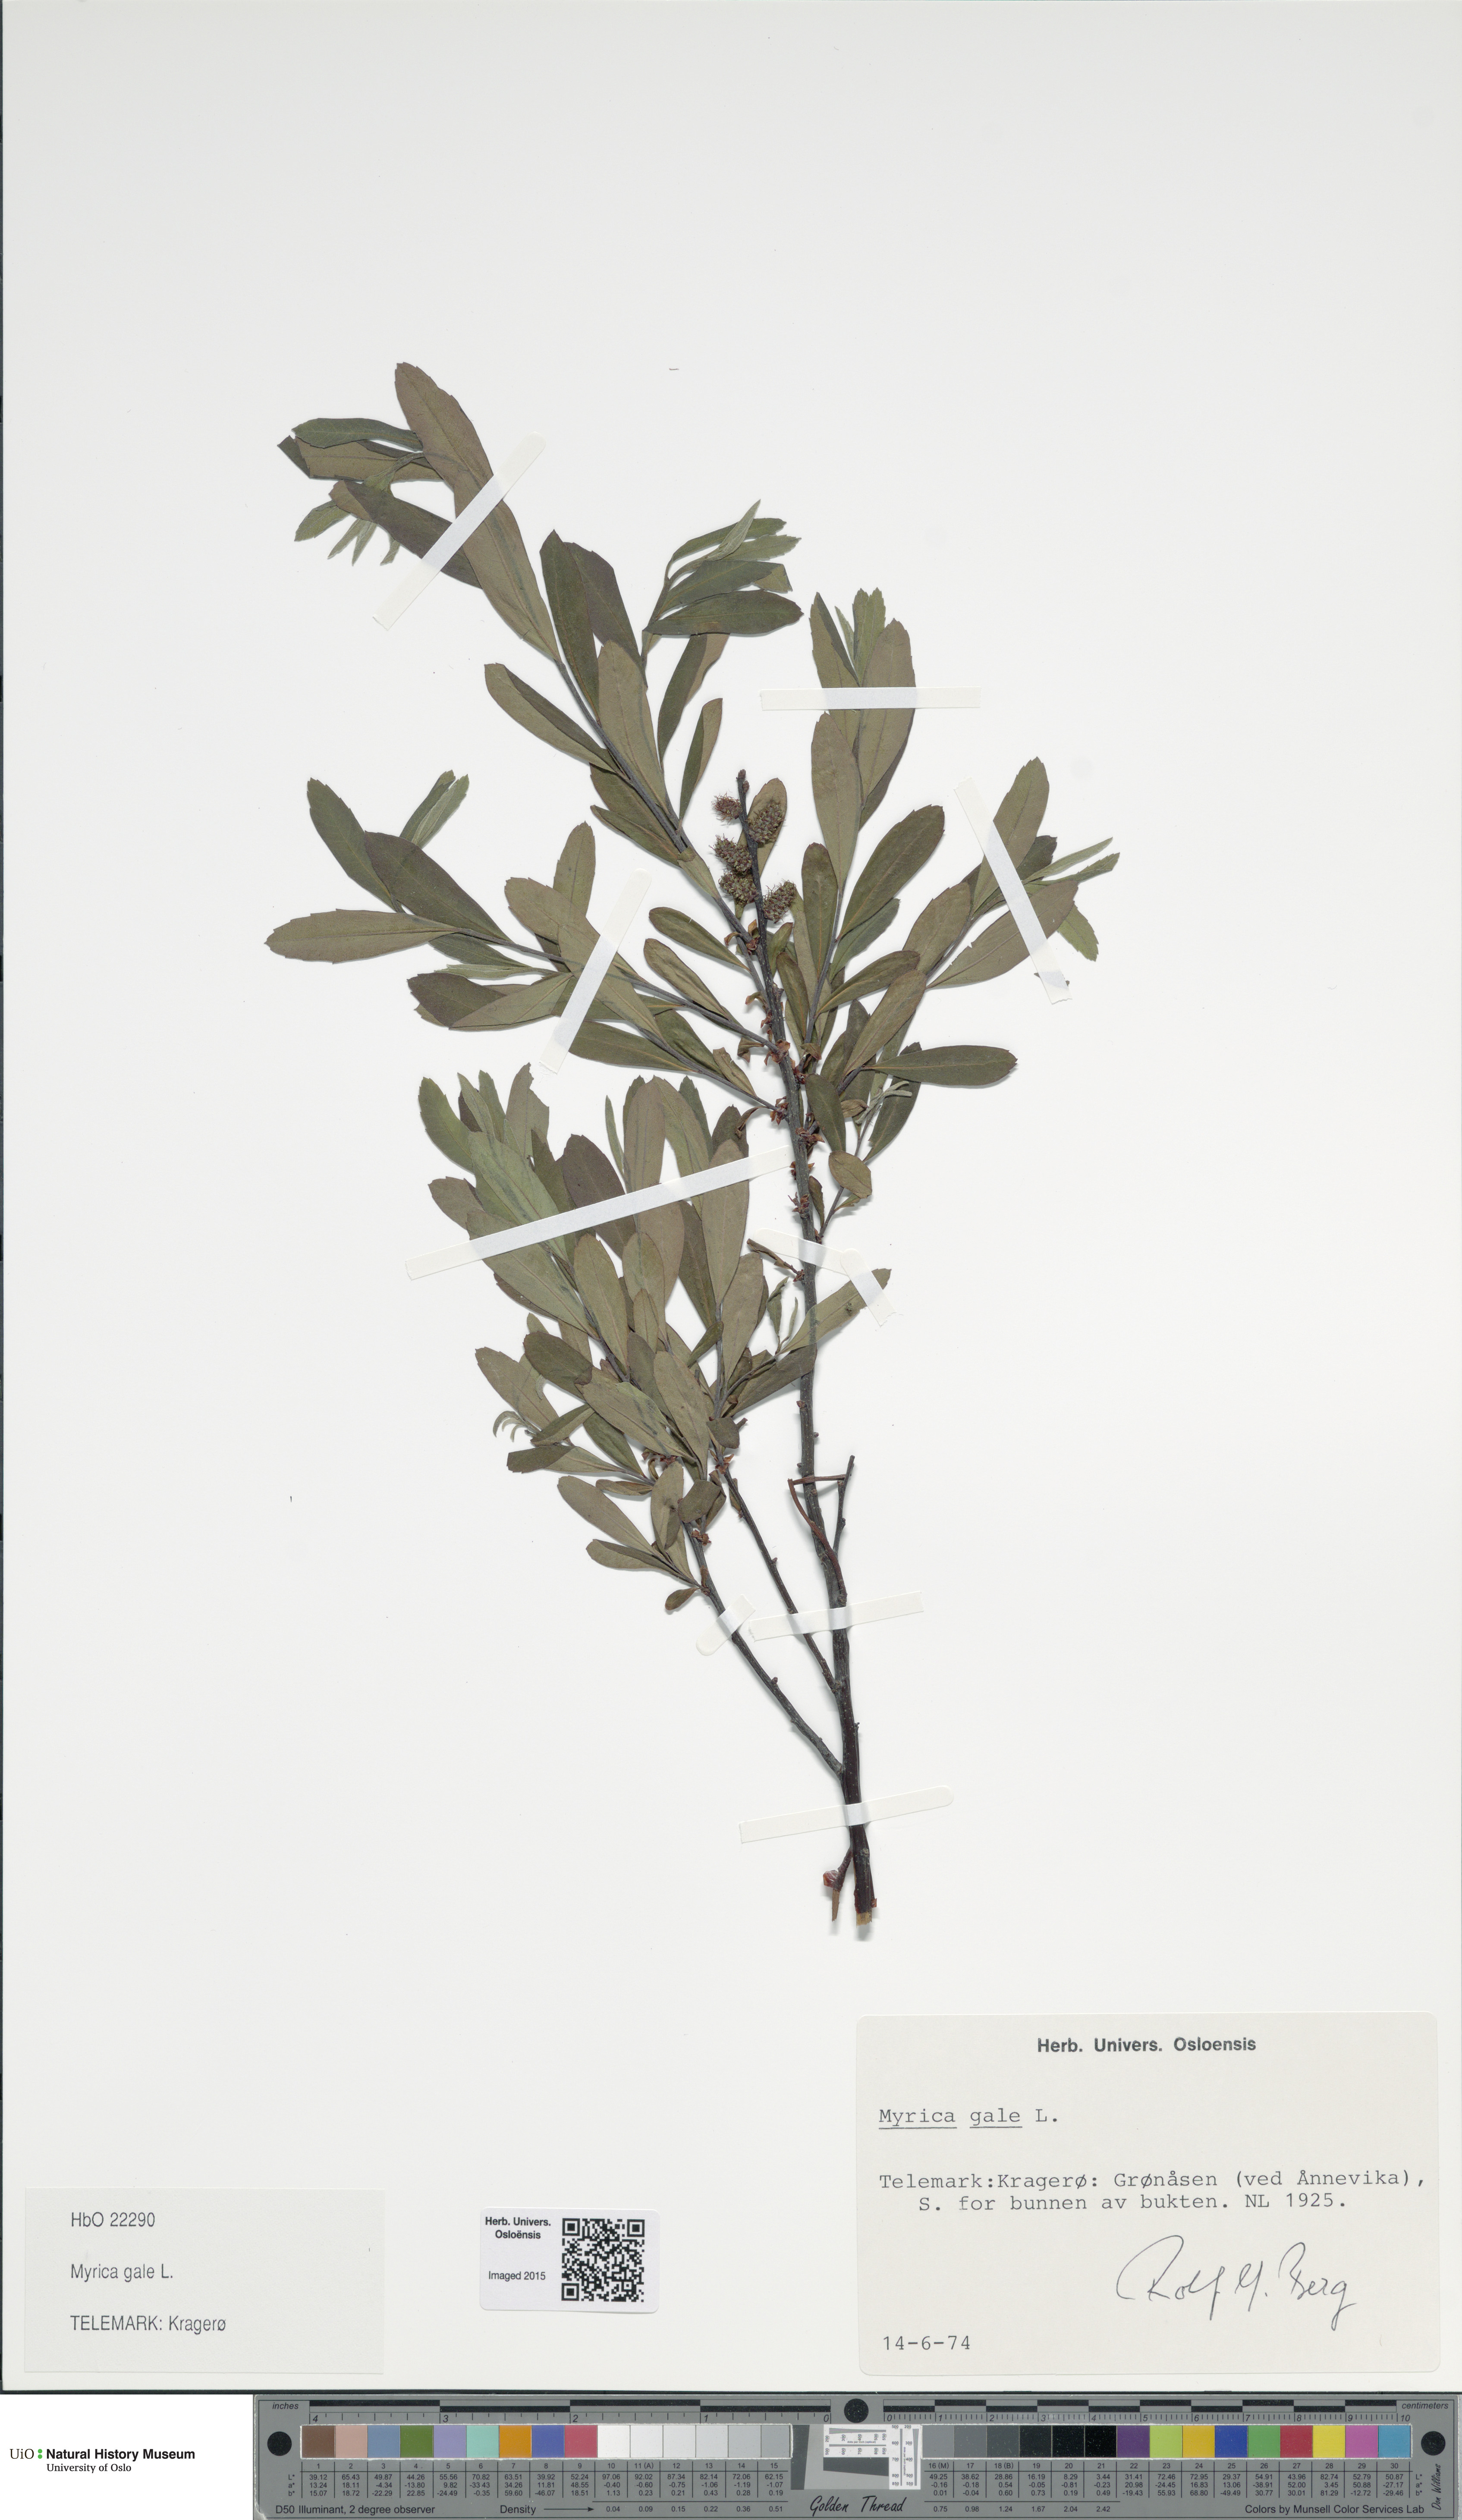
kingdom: Plantae
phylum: Tracheophyta
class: Magnoliopsida
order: Fagales
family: Myricaceae
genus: Myrica
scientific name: Myrica gale
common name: Sweet gale
